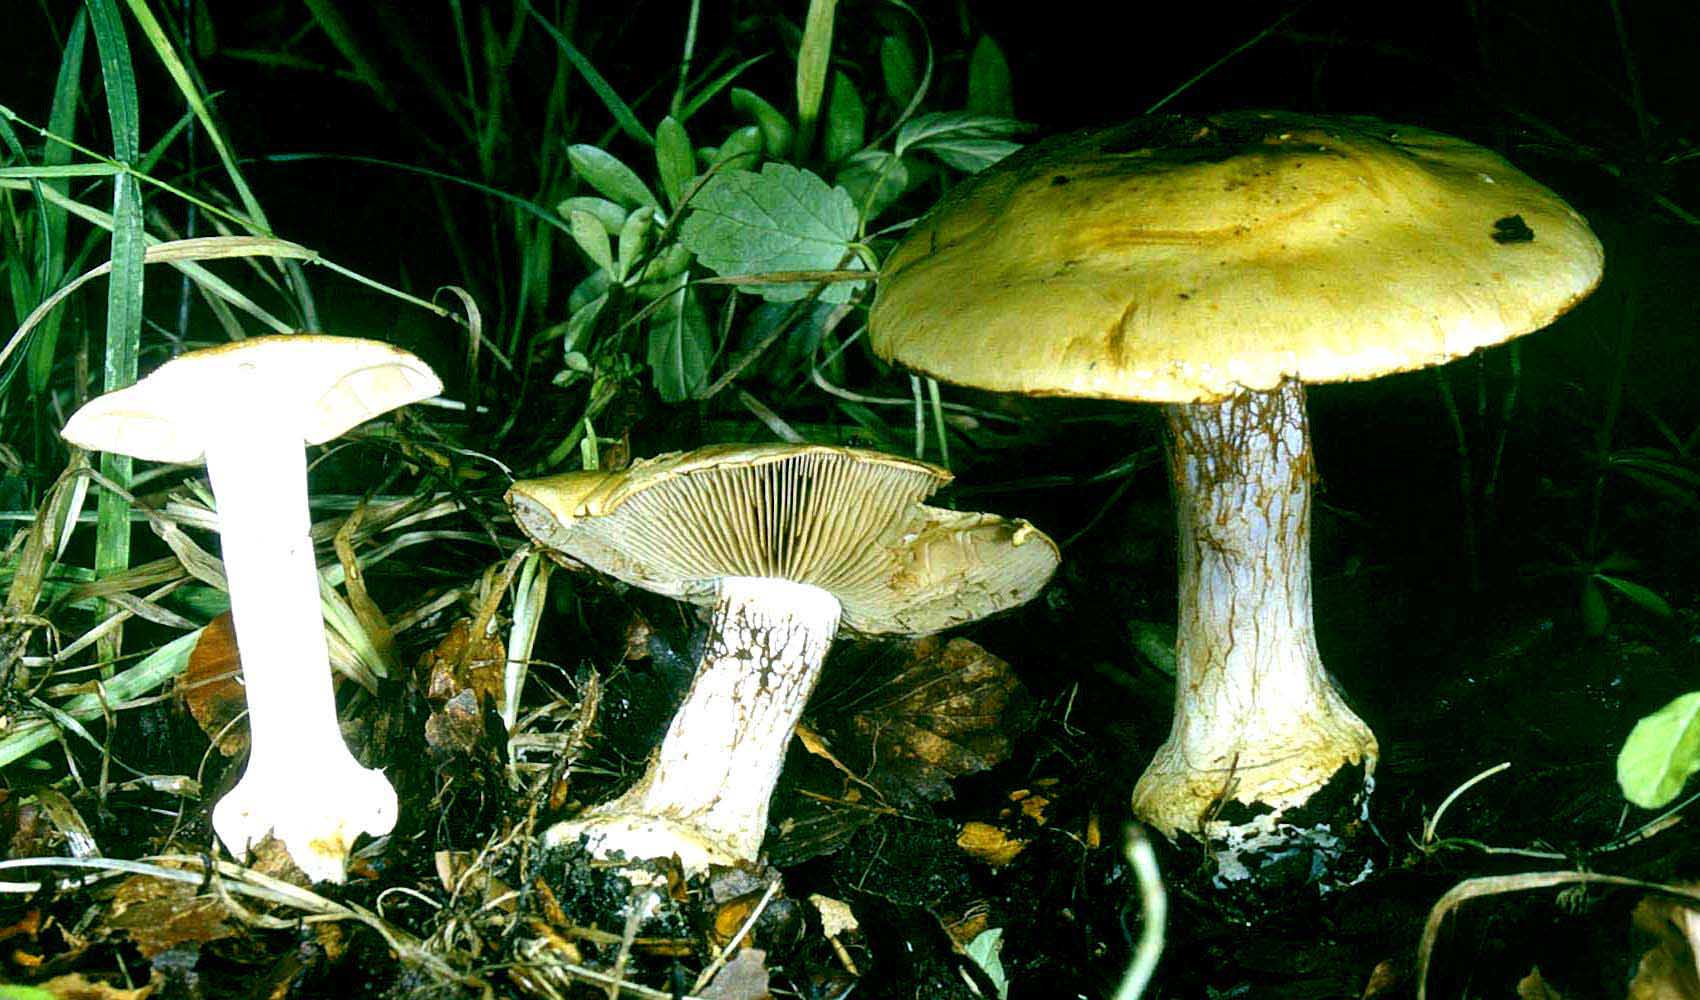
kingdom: Fungi
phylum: Basidiomycota
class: Agaricomycetes
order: Agaricales
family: Cortinariaceae
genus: Cortinarius
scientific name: Cortinarius anserinus
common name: bøge-slørhat
